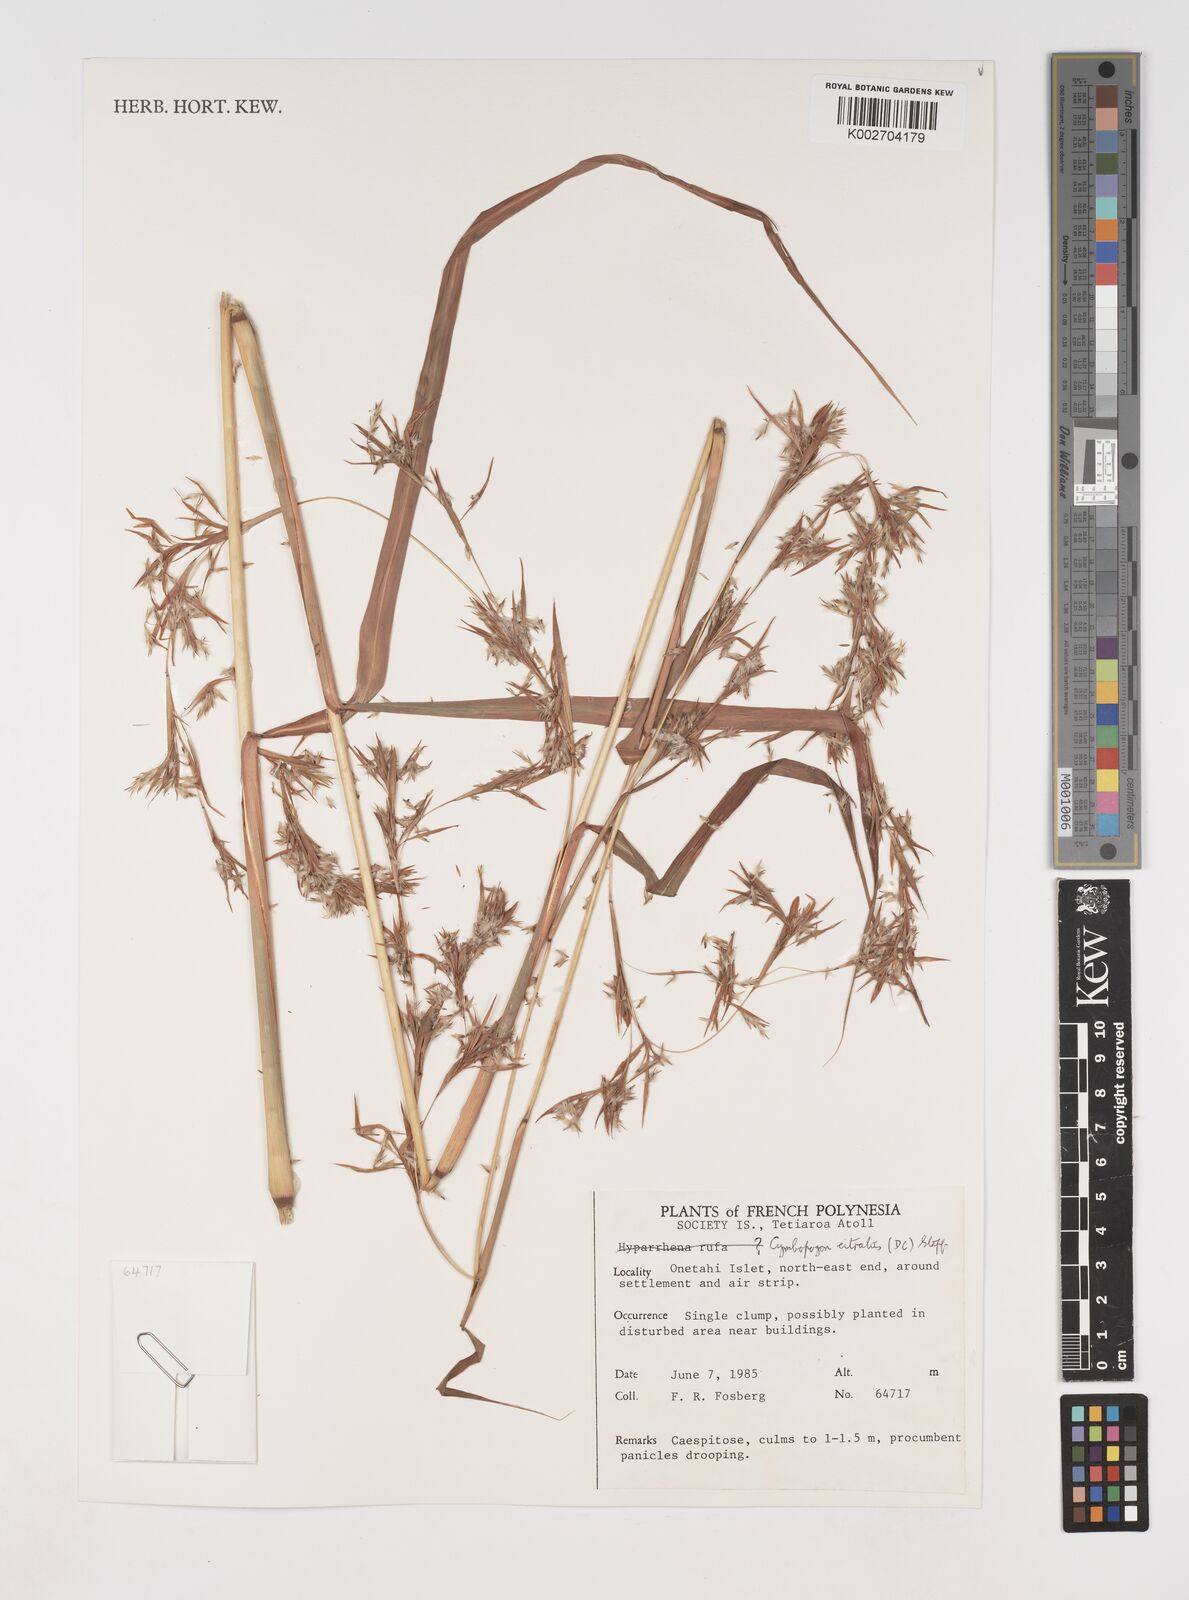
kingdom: Plantae
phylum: Tracheophyta
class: Liliopsida
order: Poales
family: Poaceae
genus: Cymbopogon
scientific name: Cymbopogon citratus
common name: Lemon grass
